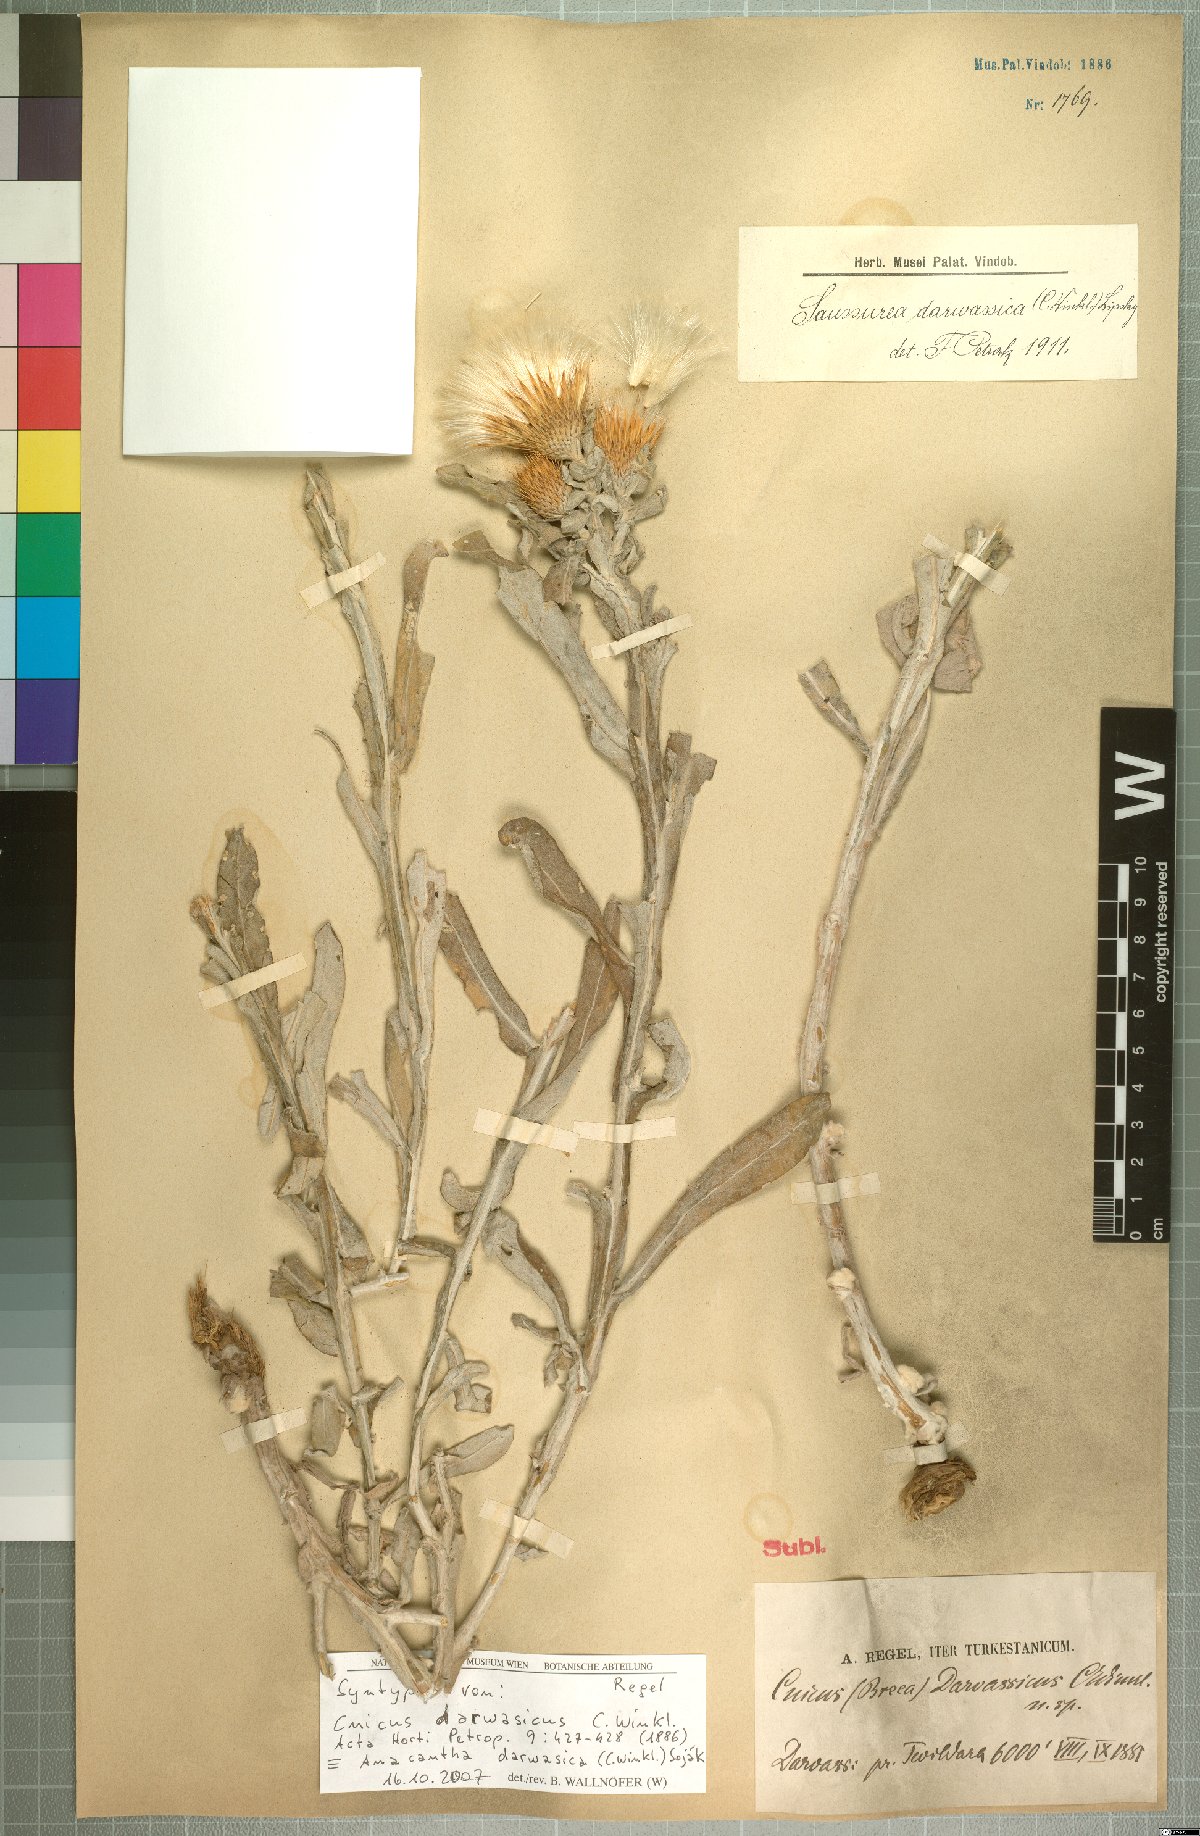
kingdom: Plantae
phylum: Tracheophyta
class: Magnoliopsida
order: Asterales
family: Asteraceae
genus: Anacantha
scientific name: Anacantha darwasica
